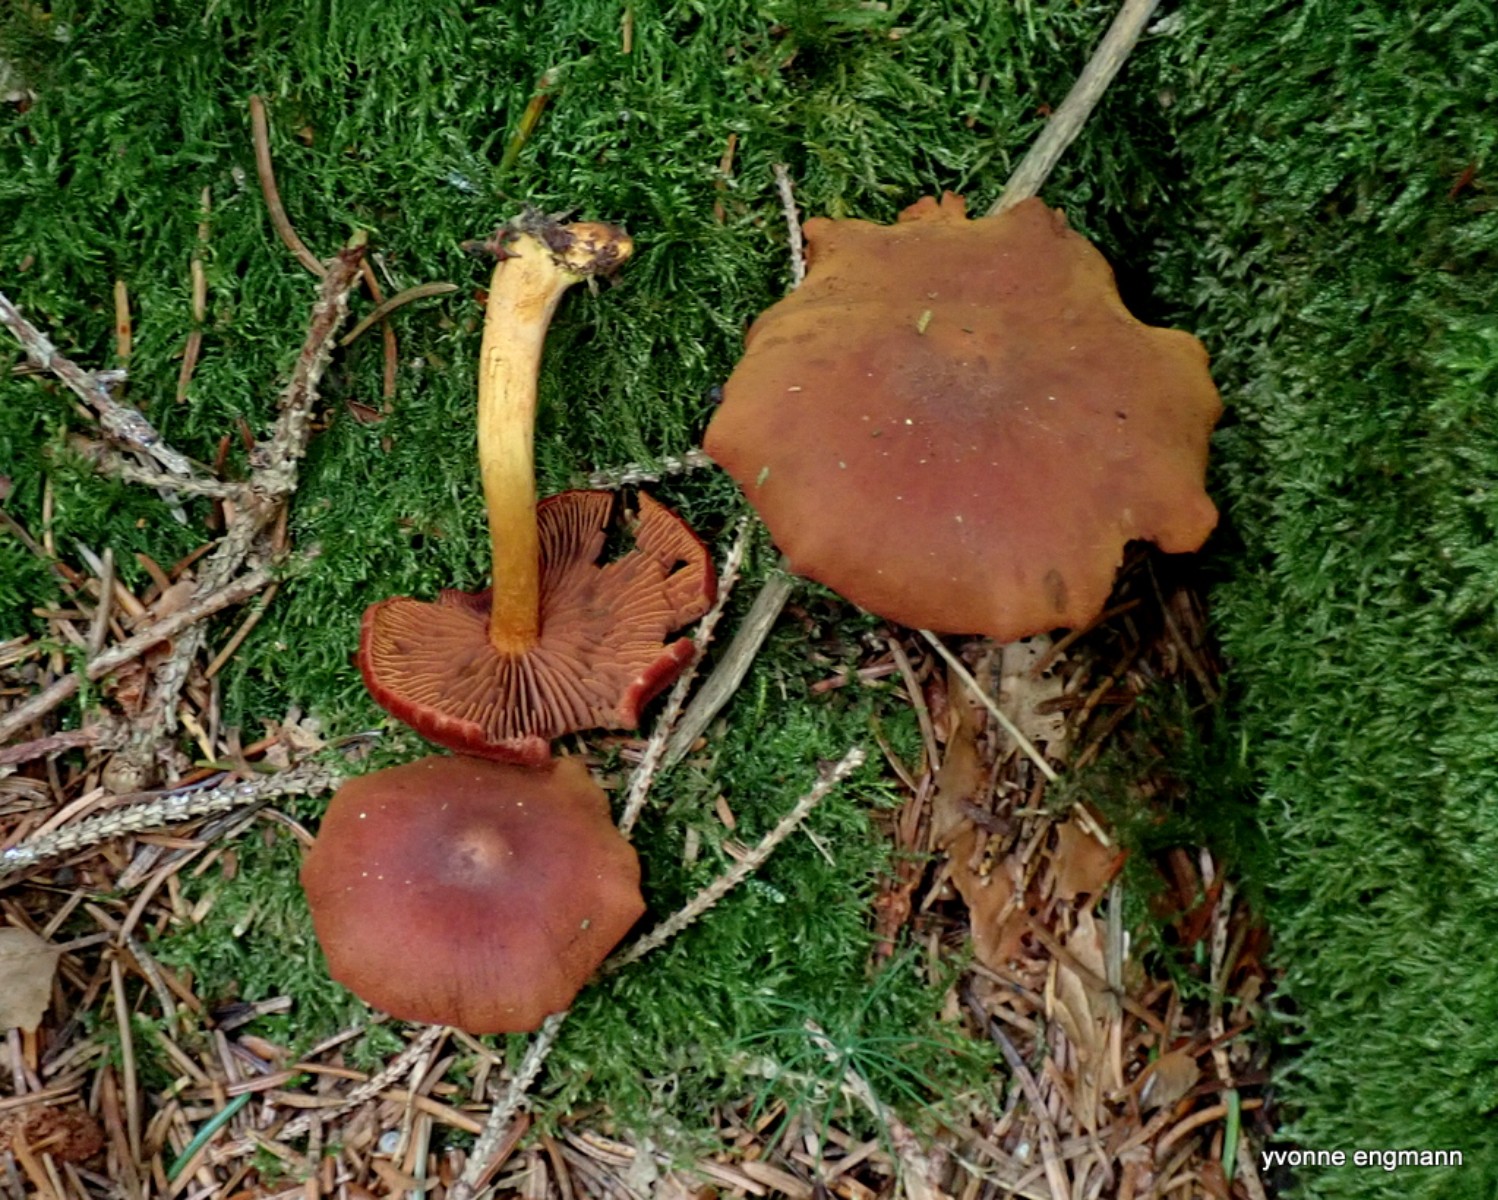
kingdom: Fungi
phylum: Basidiomycota
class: Agaricomycetes
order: Agaricales
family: Cortinariaceae
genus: Cortinarius
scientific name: Cortinarius
